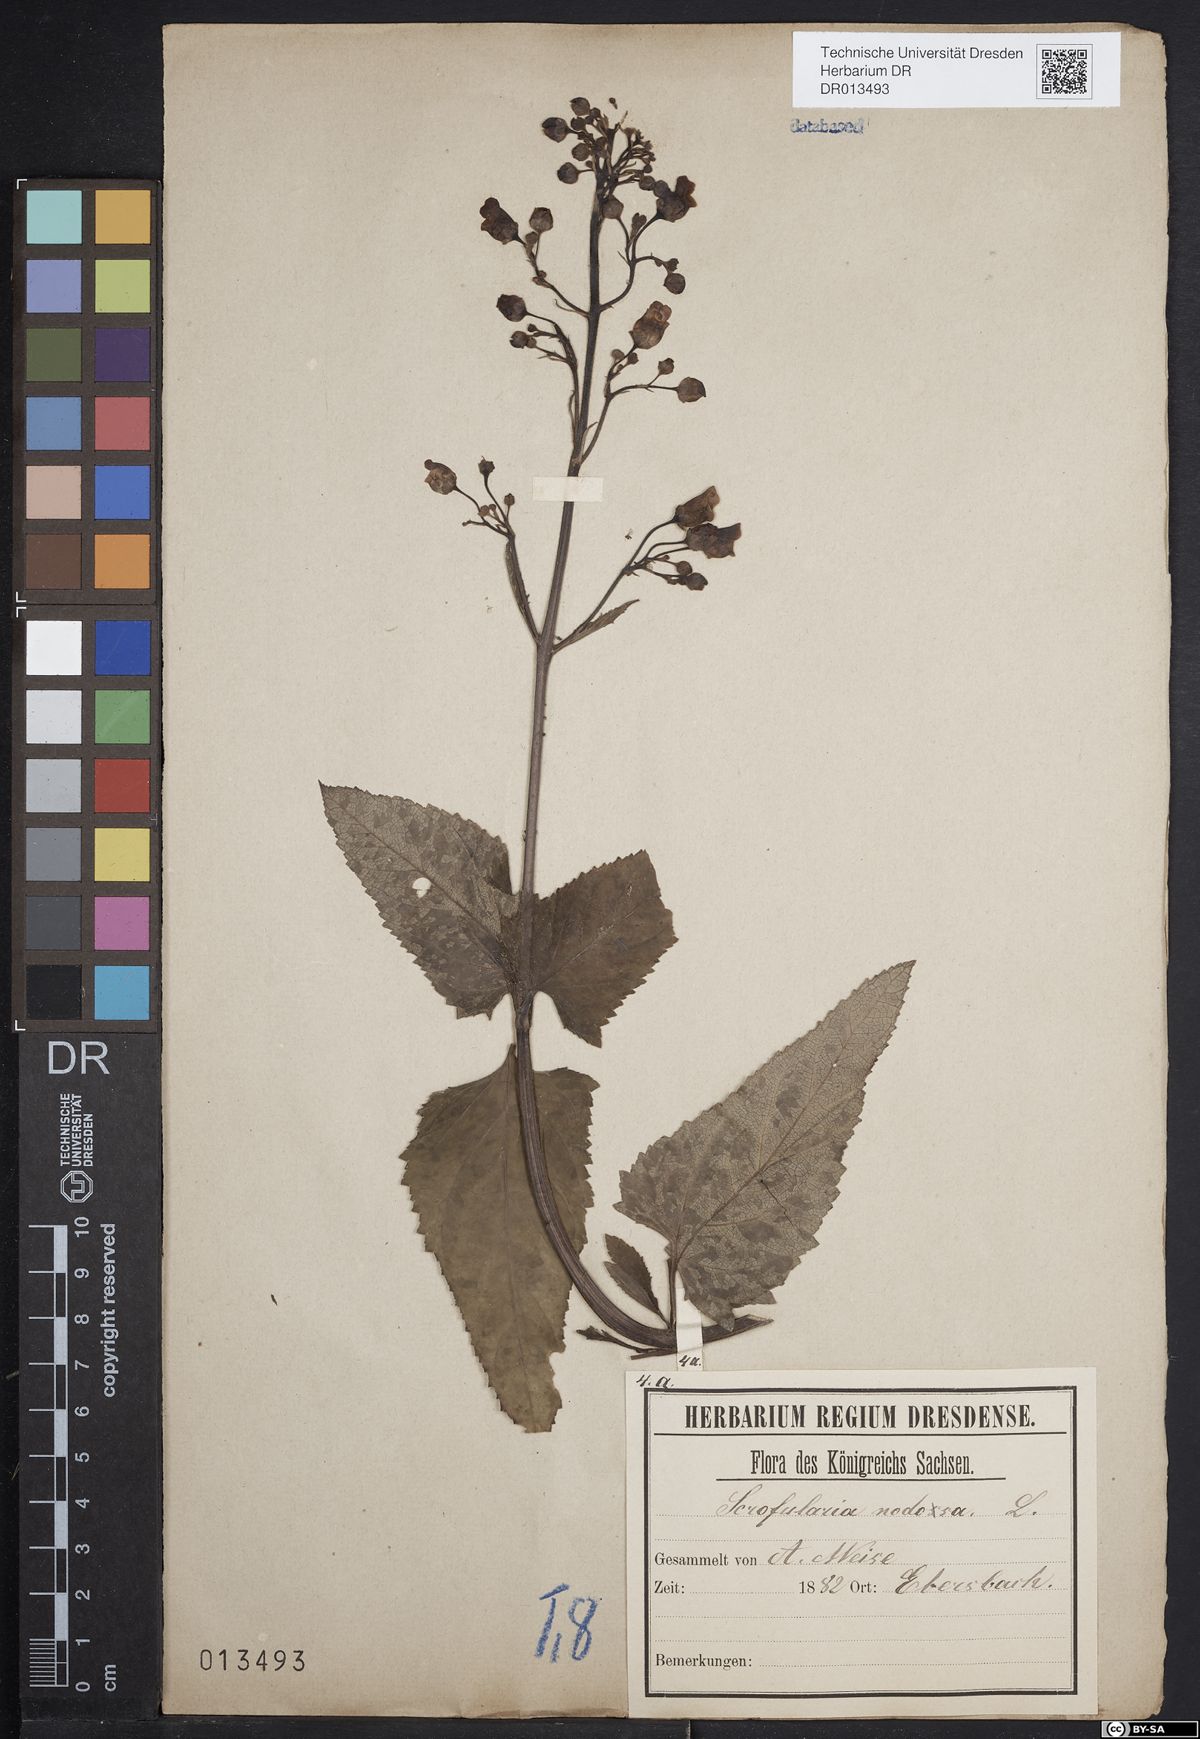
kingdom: Plantae
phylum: Tracheophyta
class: Magnoliopsida
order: Lamiales
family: Scrophulariaceae
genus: Scrophularia
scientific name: Scrophularia nodosa
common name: Common figwort
